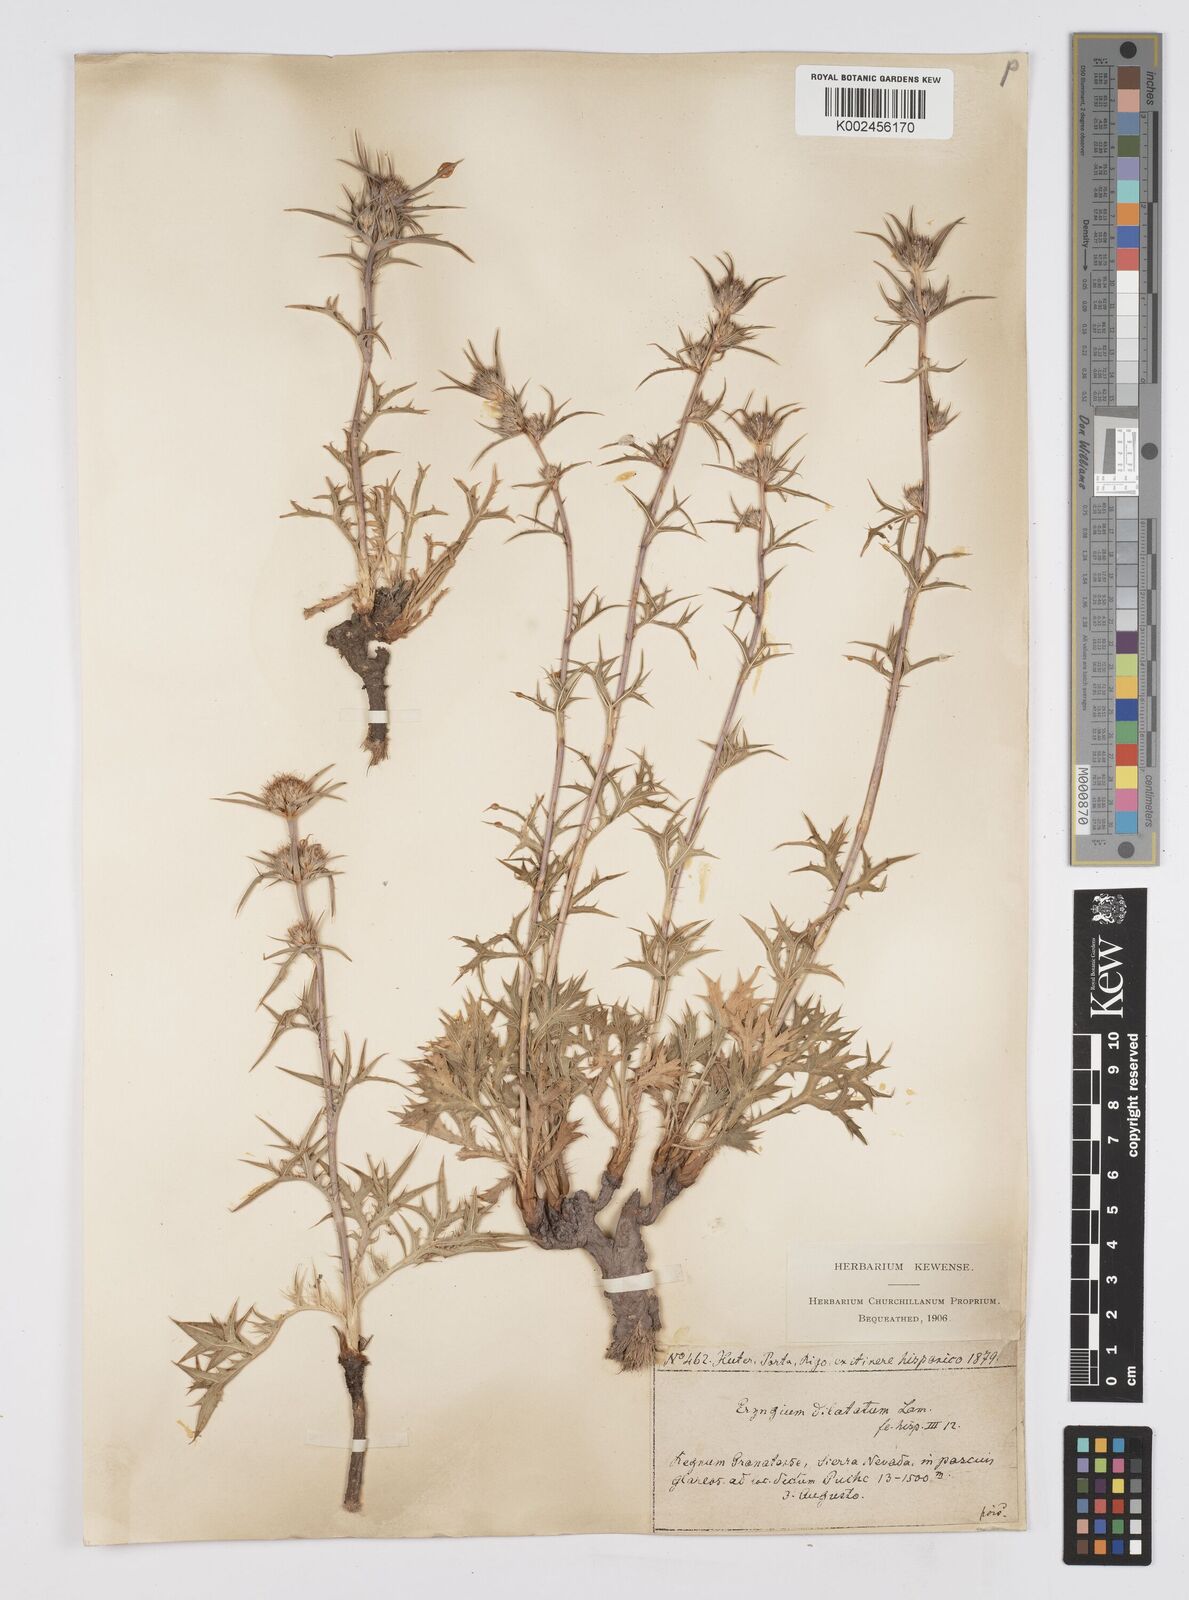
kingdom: Plantae
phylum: Tracheophyta
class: Magnoliopsida
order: Apiales
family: Apiaceae
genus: Eryngium
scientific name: Eryngium dilatatum
